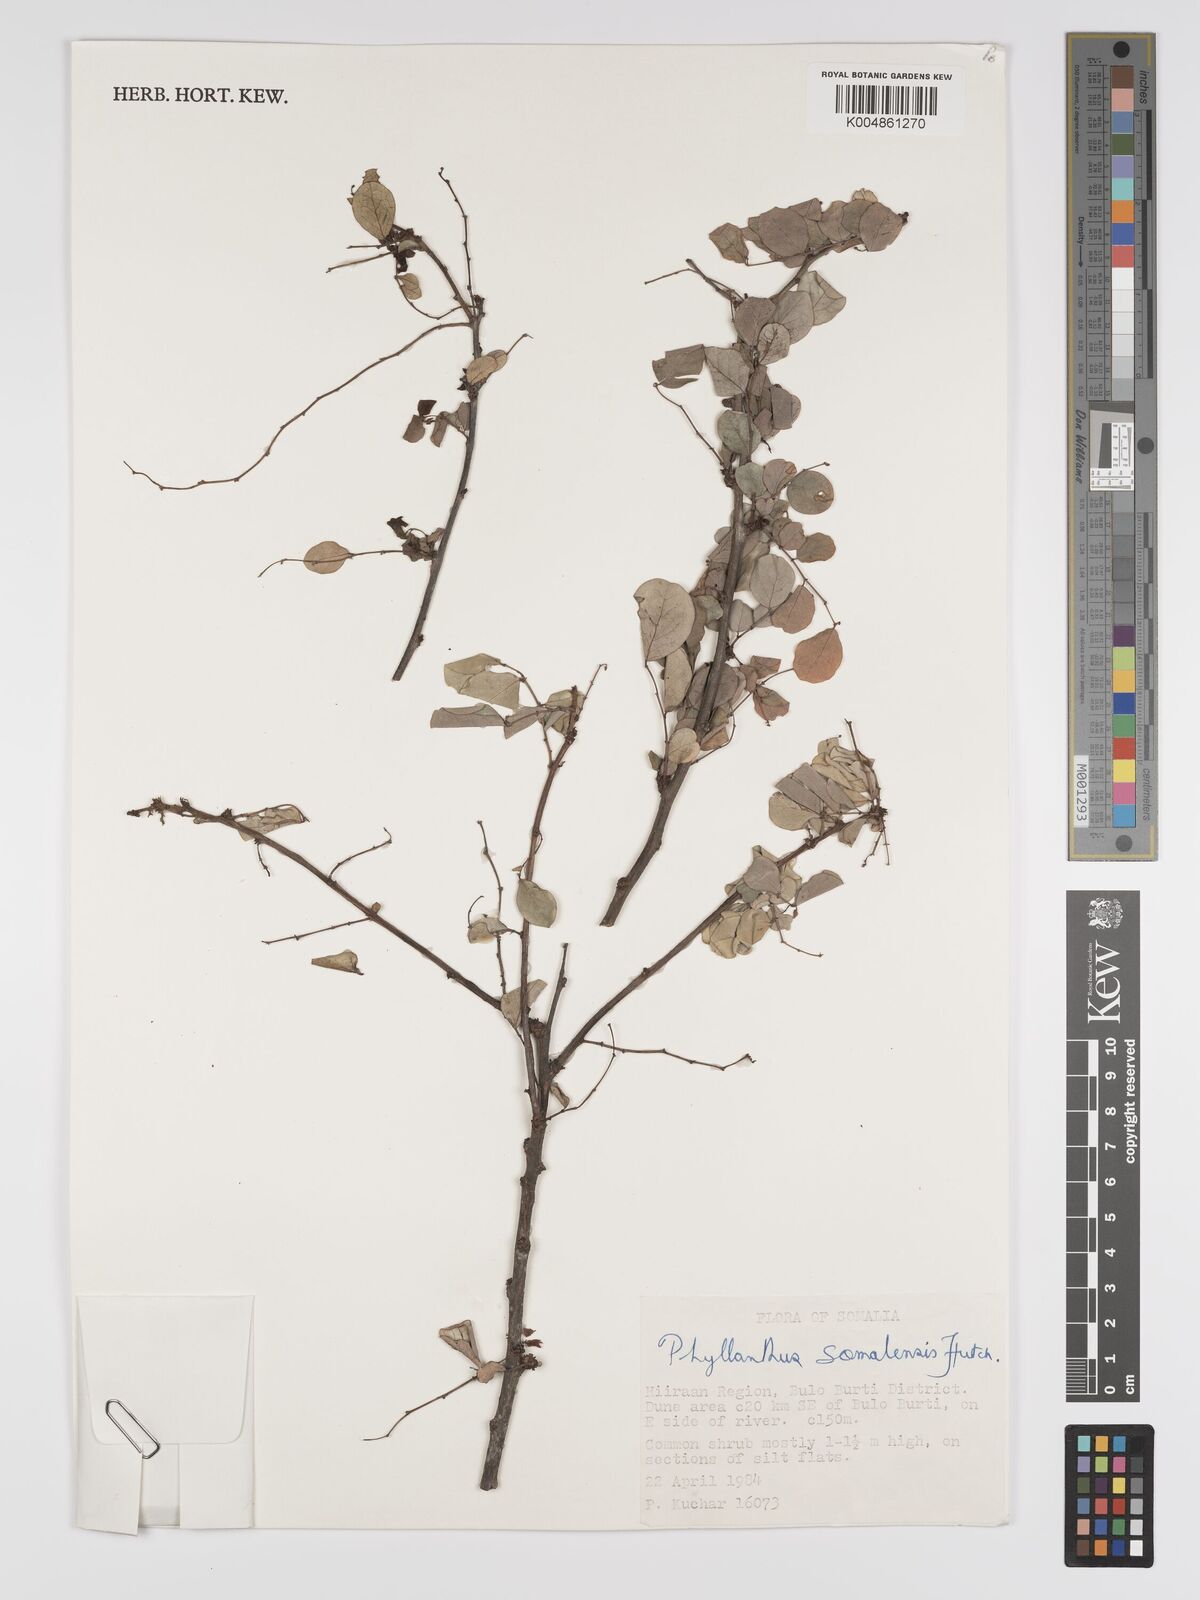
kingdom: Plantae
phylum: Tracheophyta
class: Magnoliopsida
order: Malpighiales
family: Phyllanthaceae
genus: Phyllanthus
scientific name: Phyllanthus somalensis
